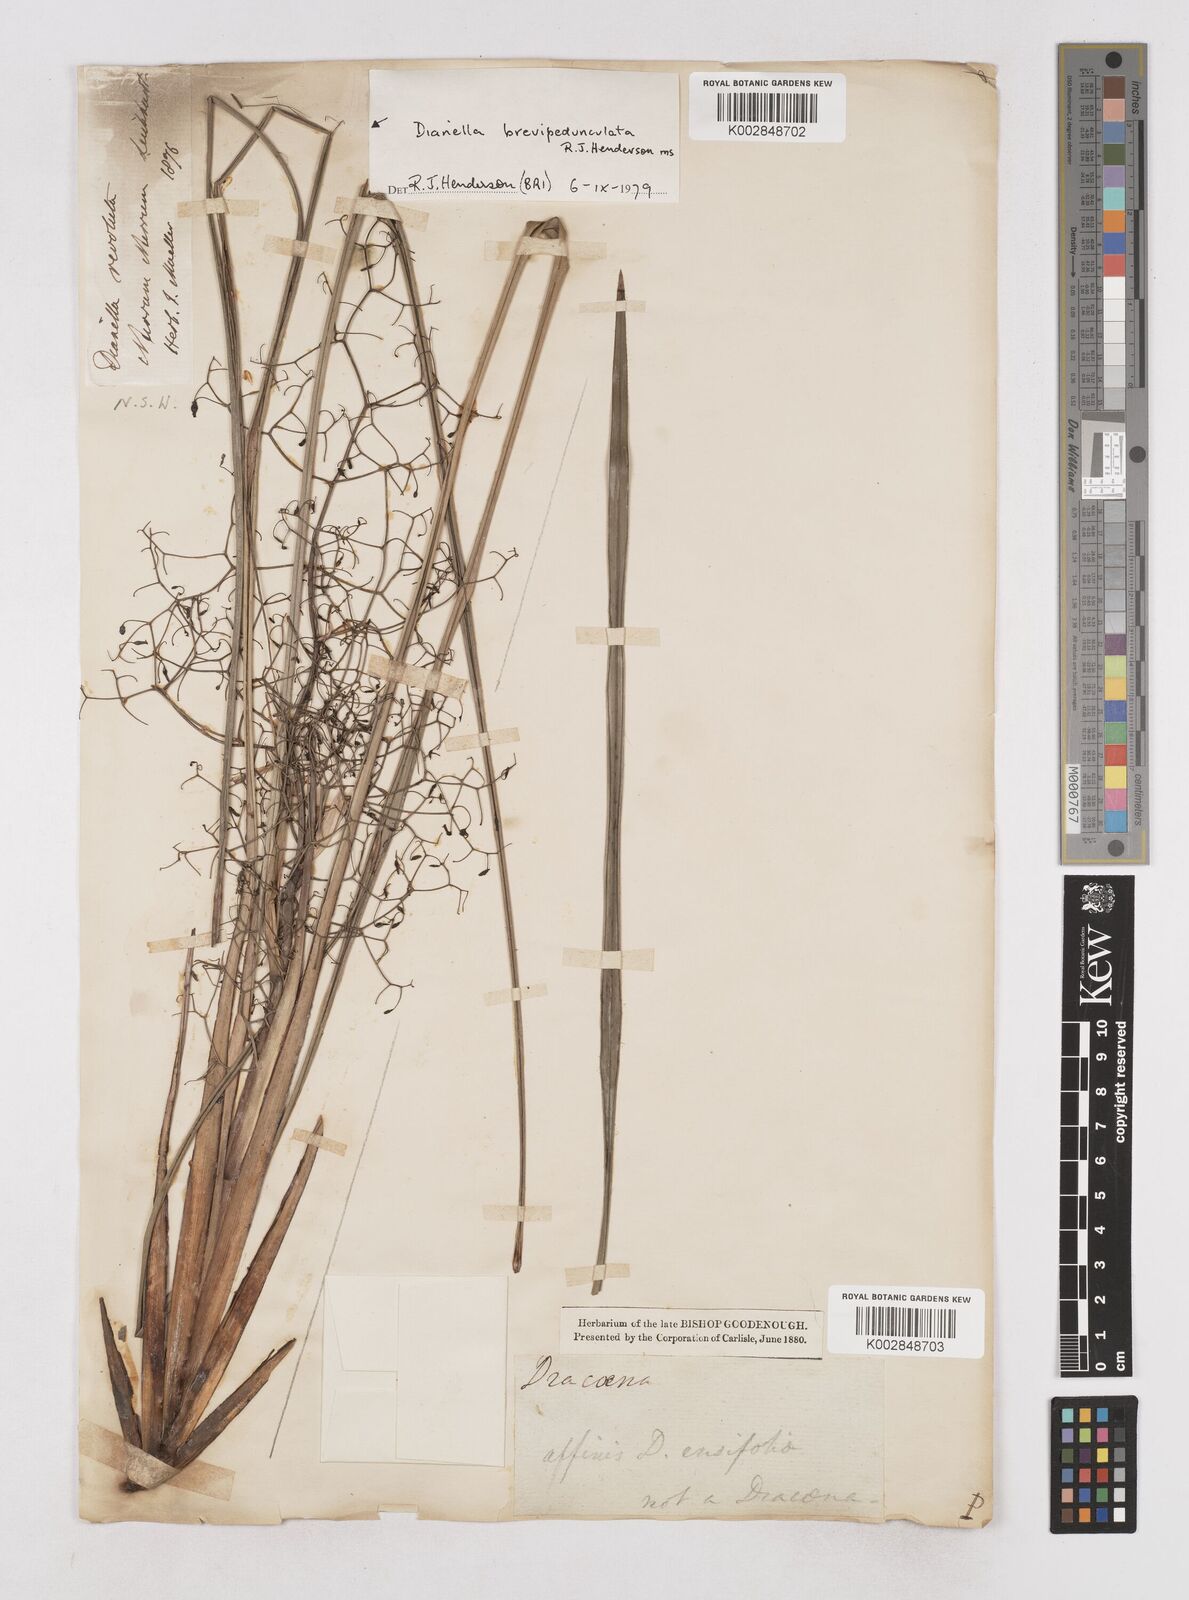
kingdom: Plantae
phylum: Tracheophyta
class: Liliopsida
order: Asparagales
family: Asphodelaceae
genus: Dianella
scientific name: Dianella brevipedunculata
